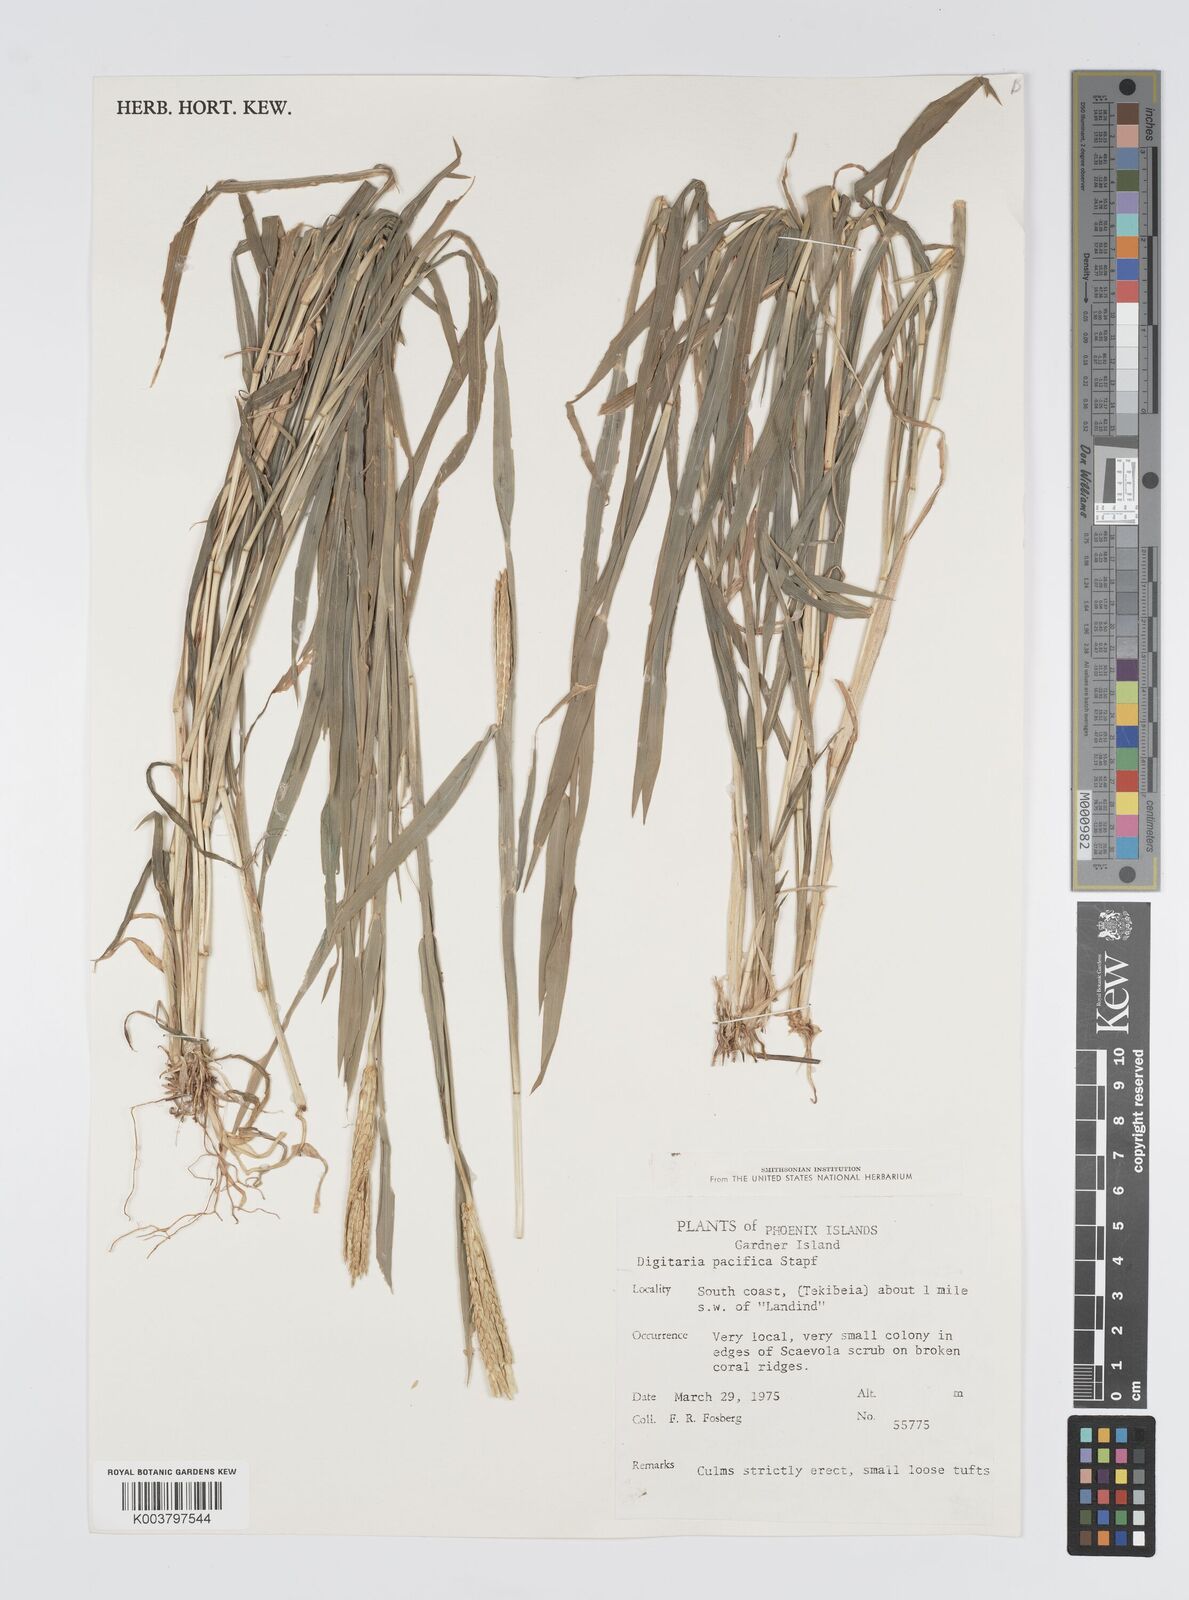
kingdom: Plantae
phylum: Tracheophyta
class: Liliopsida
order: Poales
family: Poaceae
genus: Digitaria
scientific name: Digitaria stenotaphrodes
